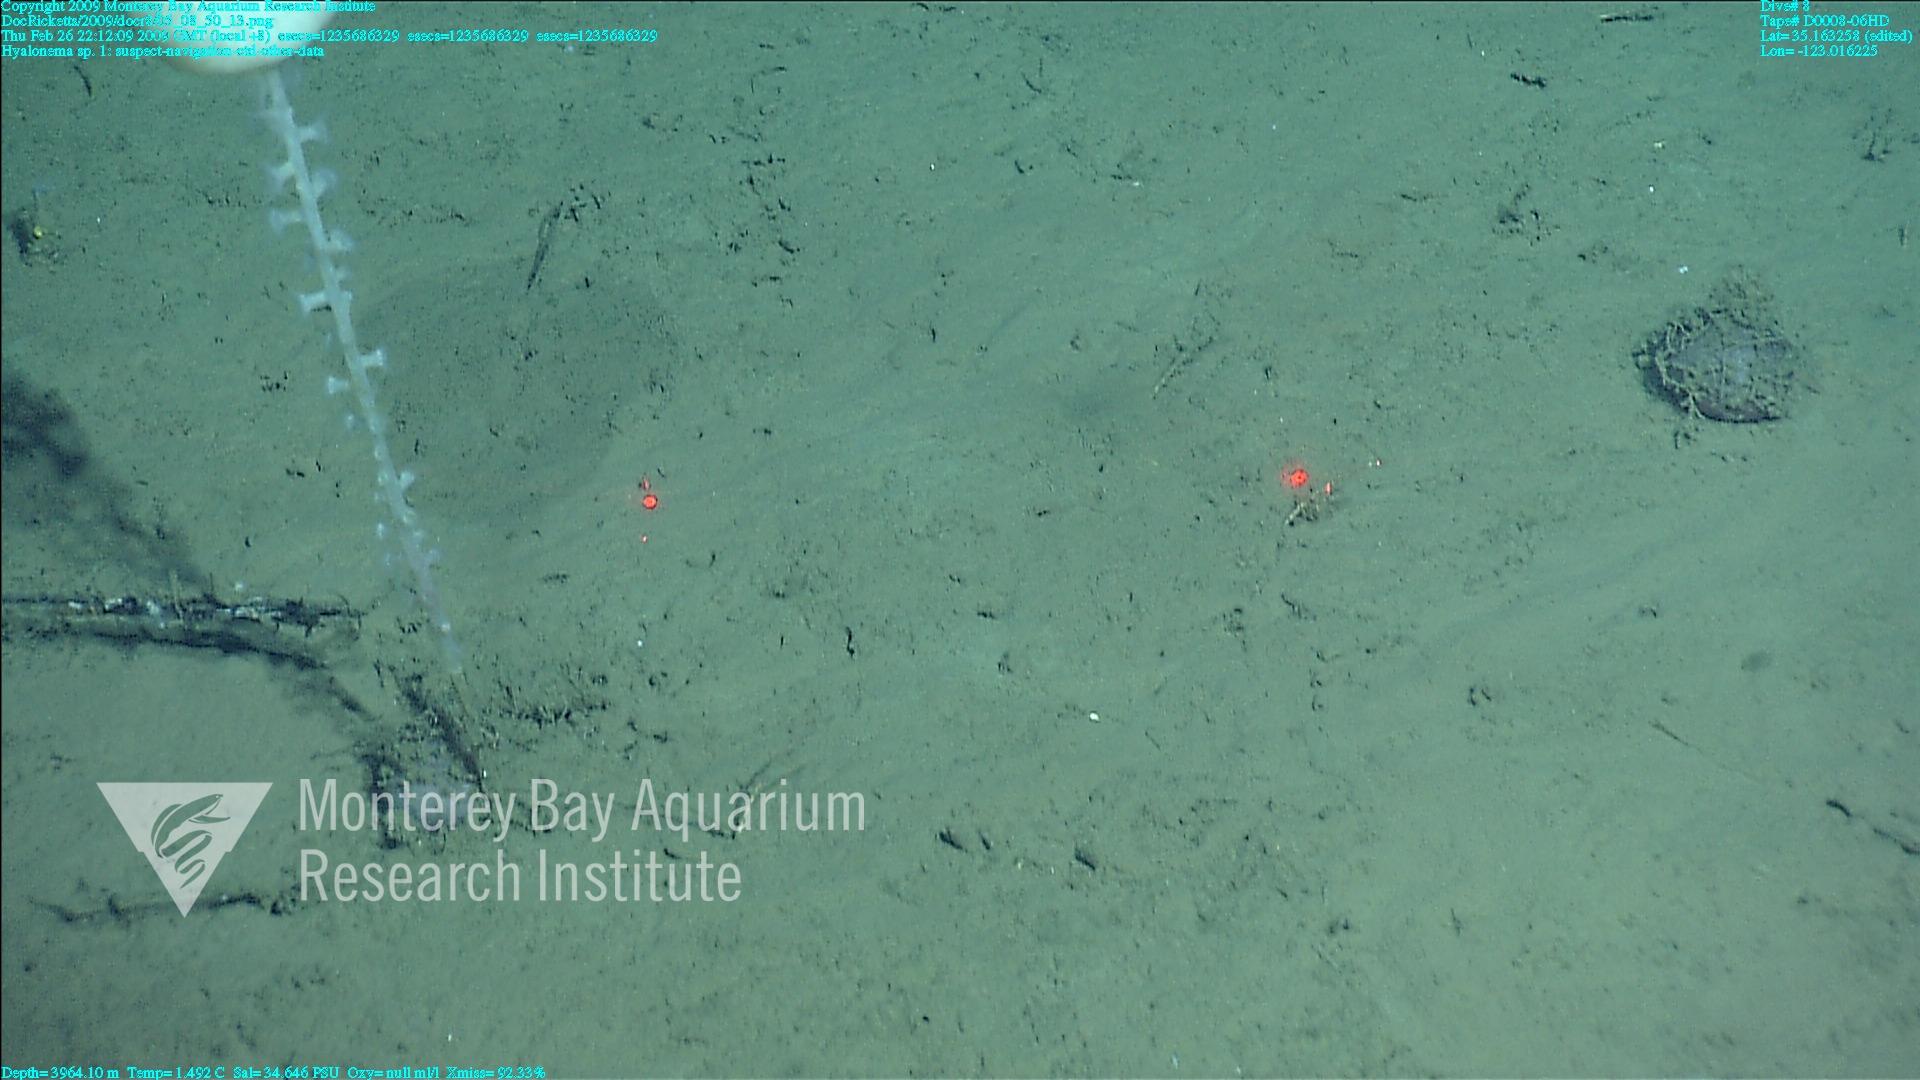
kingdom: Animalia
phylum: Porifera
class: Hexactinellida
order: Amphidiscosida
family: Hyalonematidae
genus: Hyalonema
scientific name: Hyalonema
